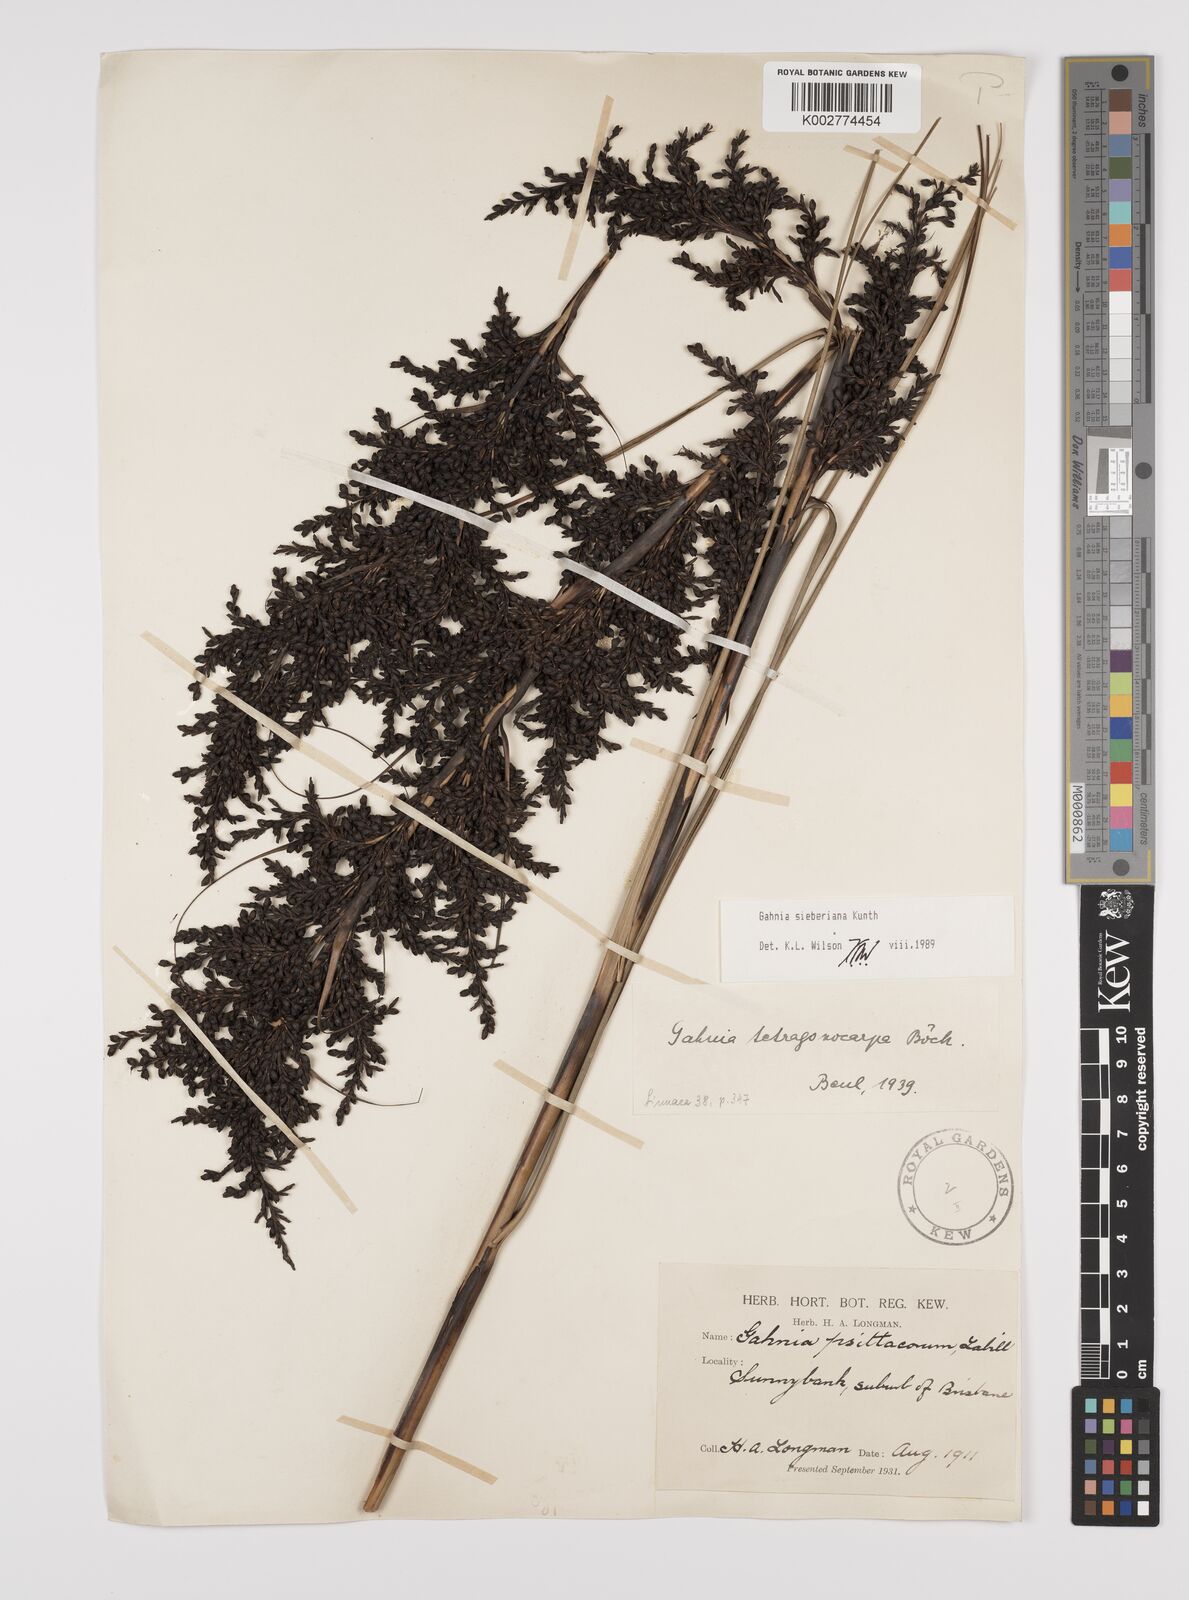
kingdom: Plantae
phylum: Tracheophyta
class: Liliopsida
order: Poales
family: Cyperaceae
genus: Gahnia
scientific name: Gahnia sieberiana
